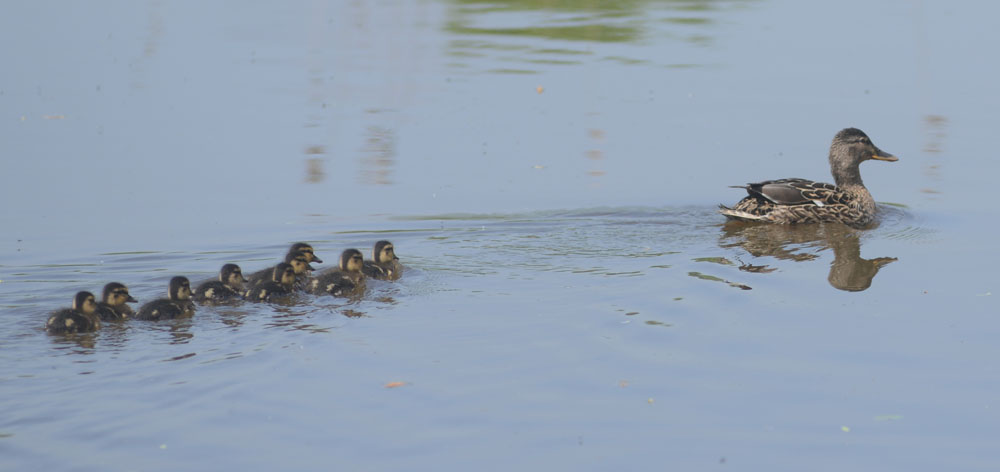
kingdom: Animalia
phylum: Chordata
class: Aves
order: Anseriformes
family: Anatidae
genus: Anas
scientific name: Anas platyrhynchos
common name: Mallard
